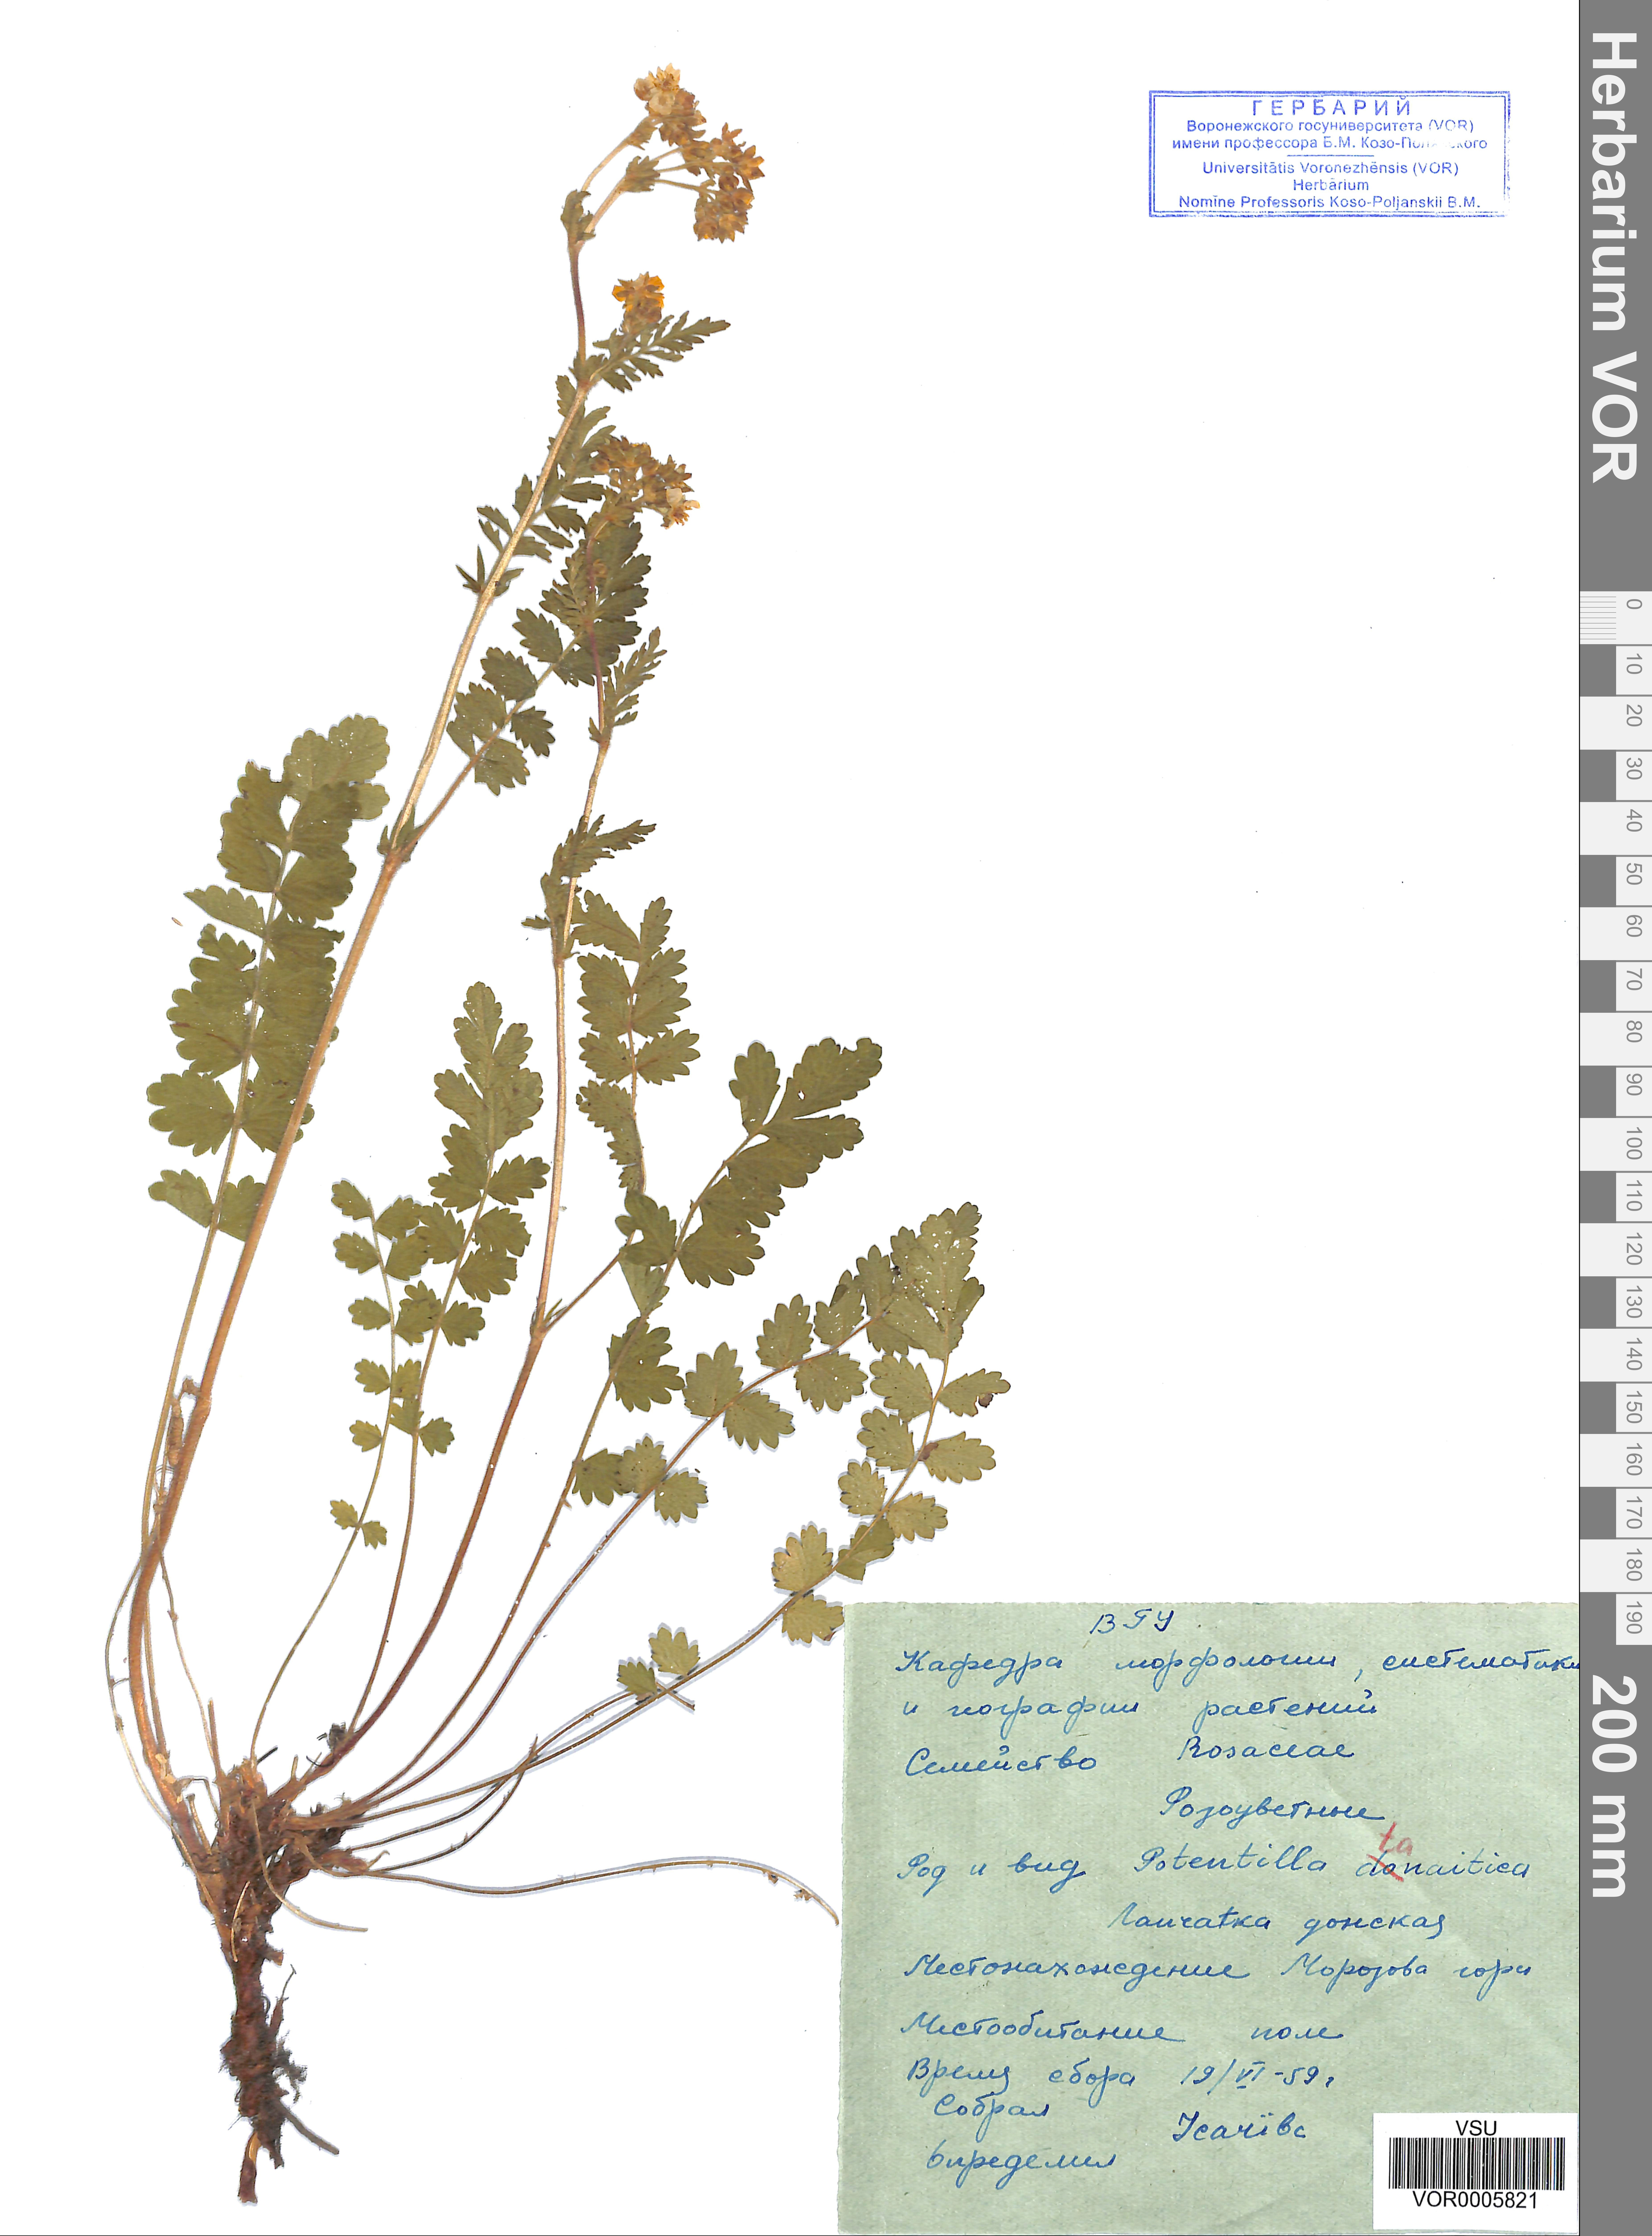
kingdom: Plantae
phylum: Tracheophyta
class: Magnoliopsida
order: Rosales
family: Rosaceae
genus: Potentilla
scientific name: Potentilla tanaitica
